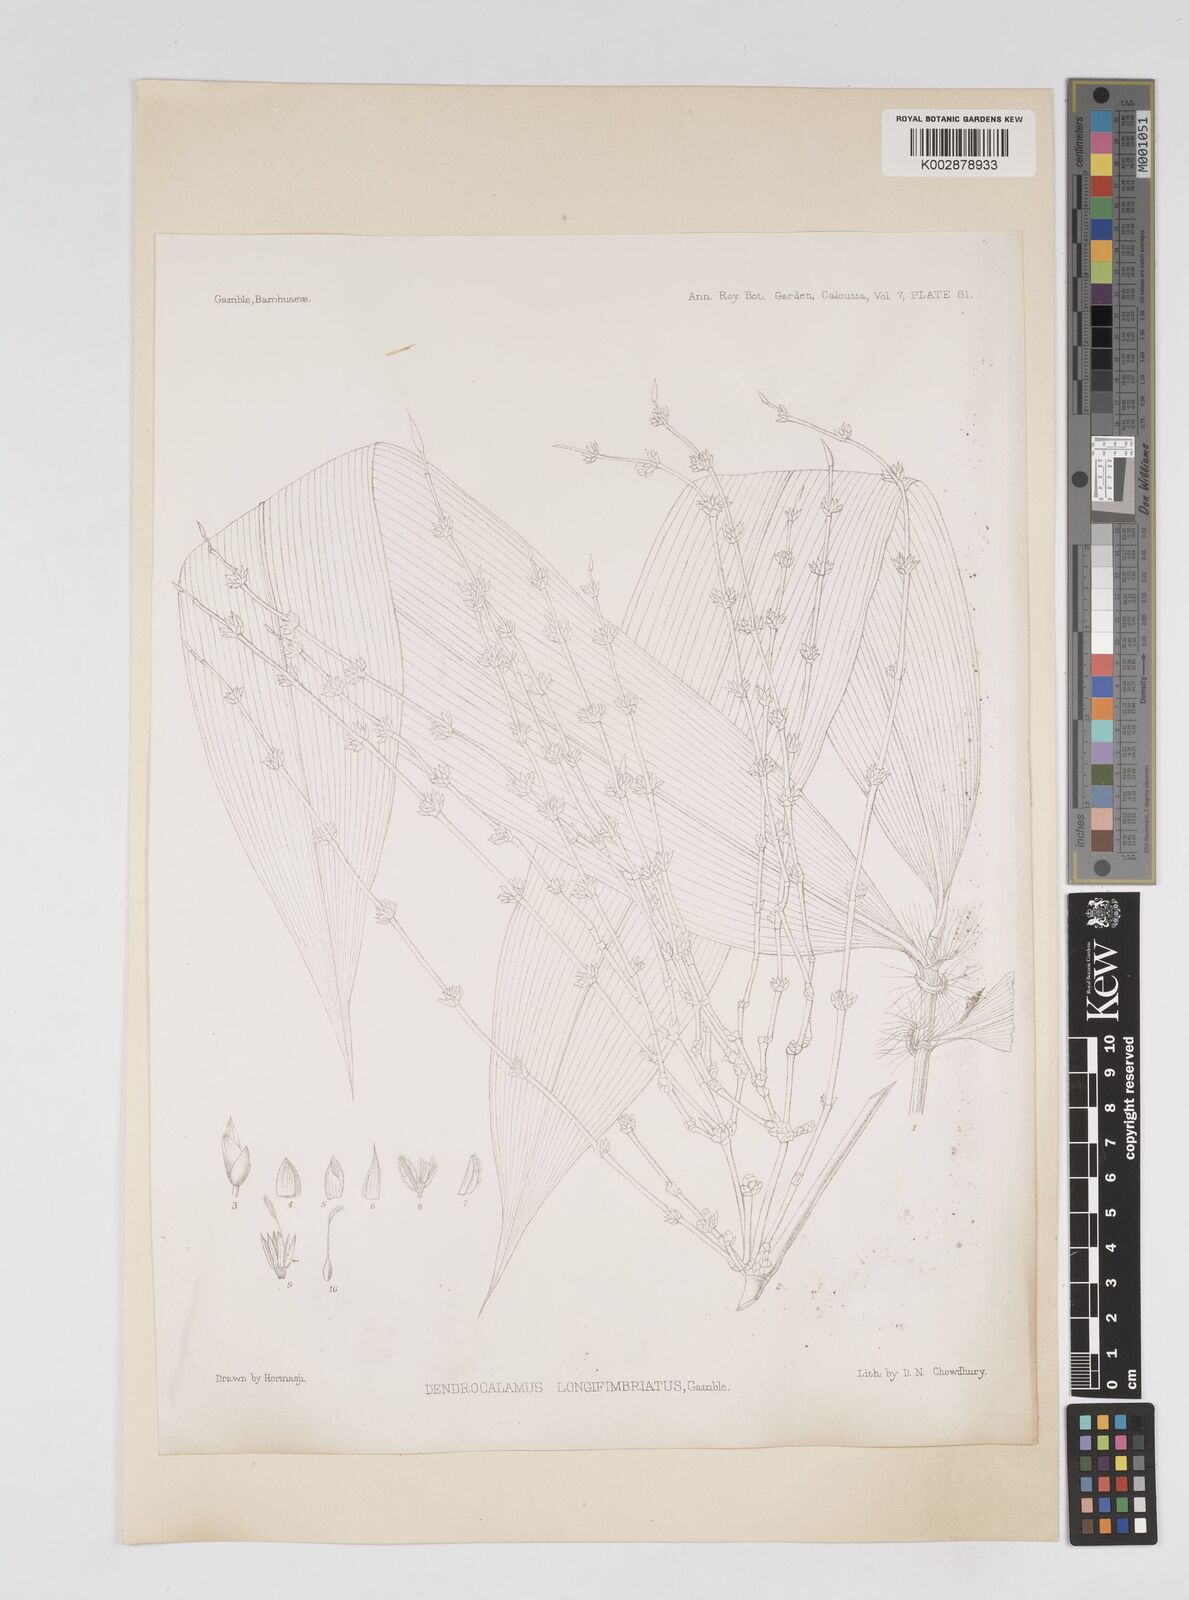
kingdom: Plantae
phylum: Tracheophyta
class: Liliopsida
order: Poales
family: Poaceae
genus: Dendrocalamus
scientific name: Dendrocalamus membranaceus
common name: White bamboo
